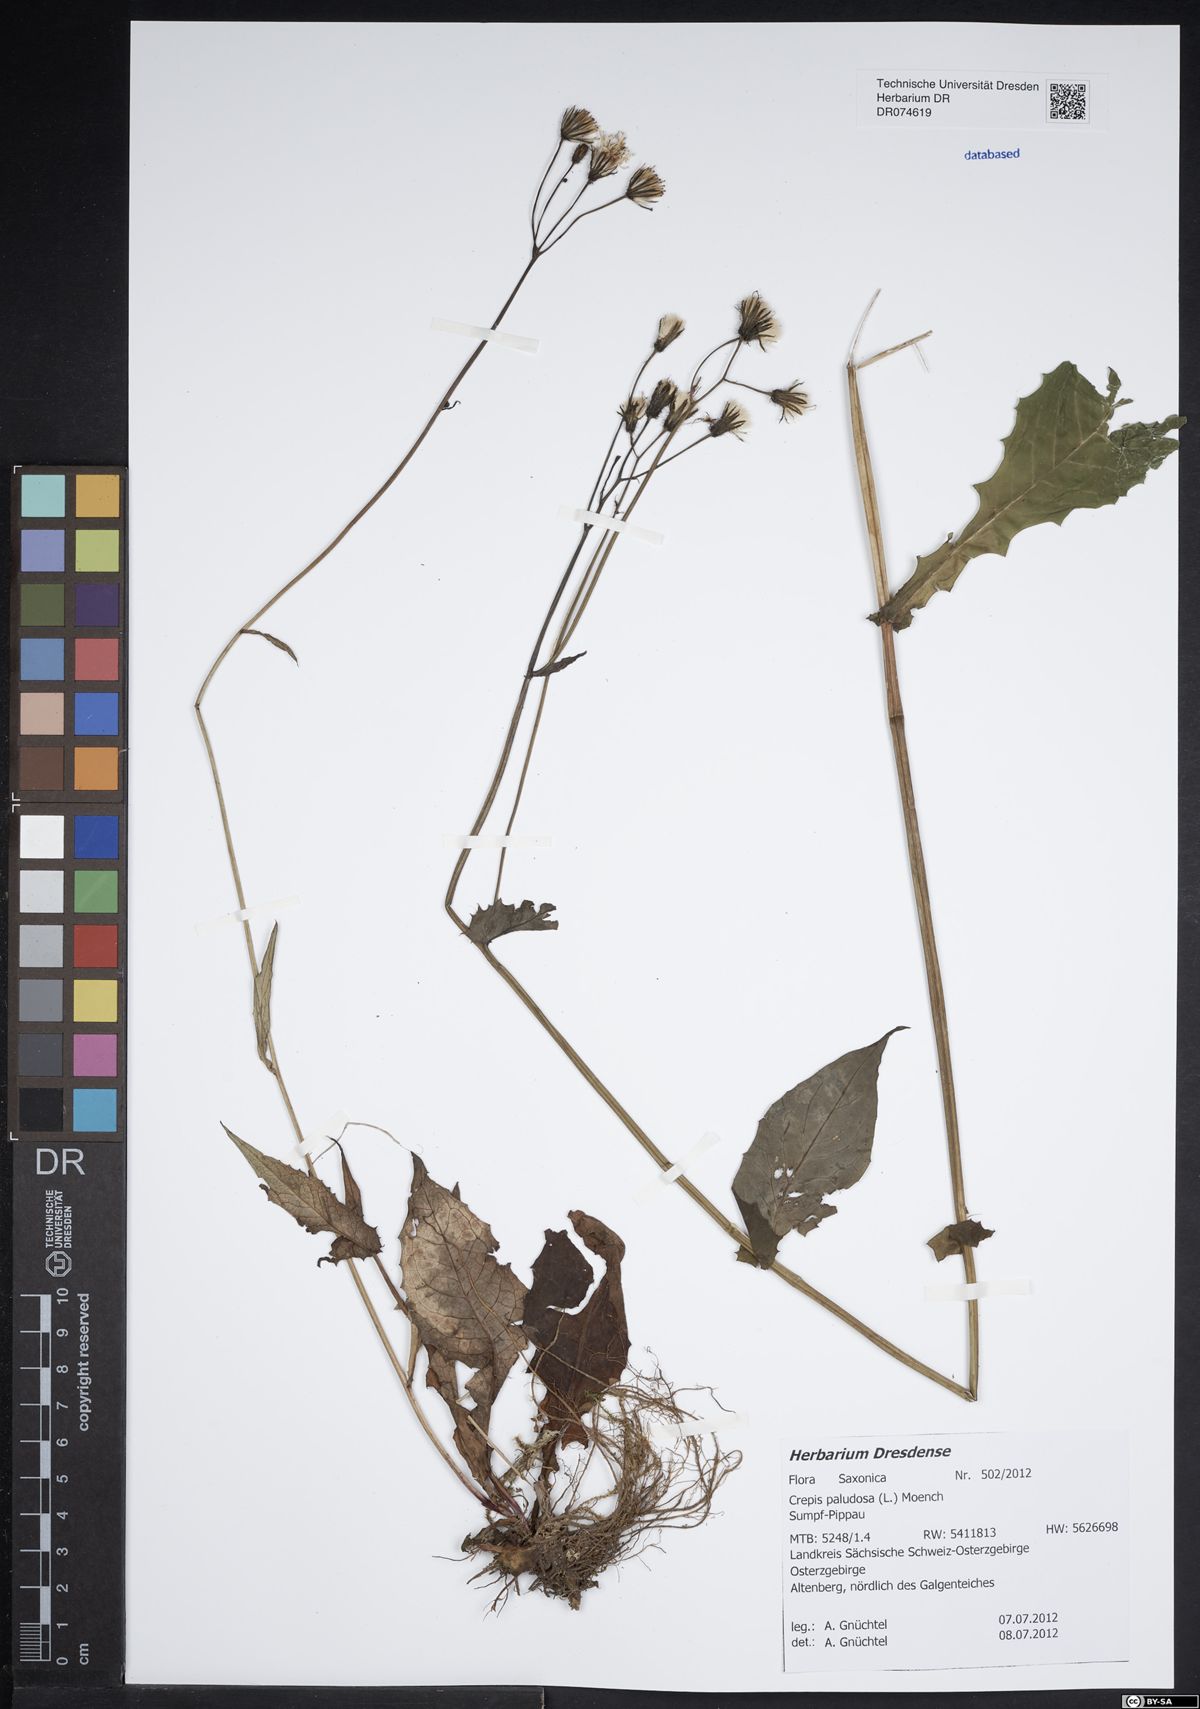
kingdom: Plantae
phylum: Tracheophyta
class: Magnoliopsida
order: Asterales
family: Asteraceae
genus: Crepis
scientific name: Crepis paludosa
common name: Marsh hawk's-beard
